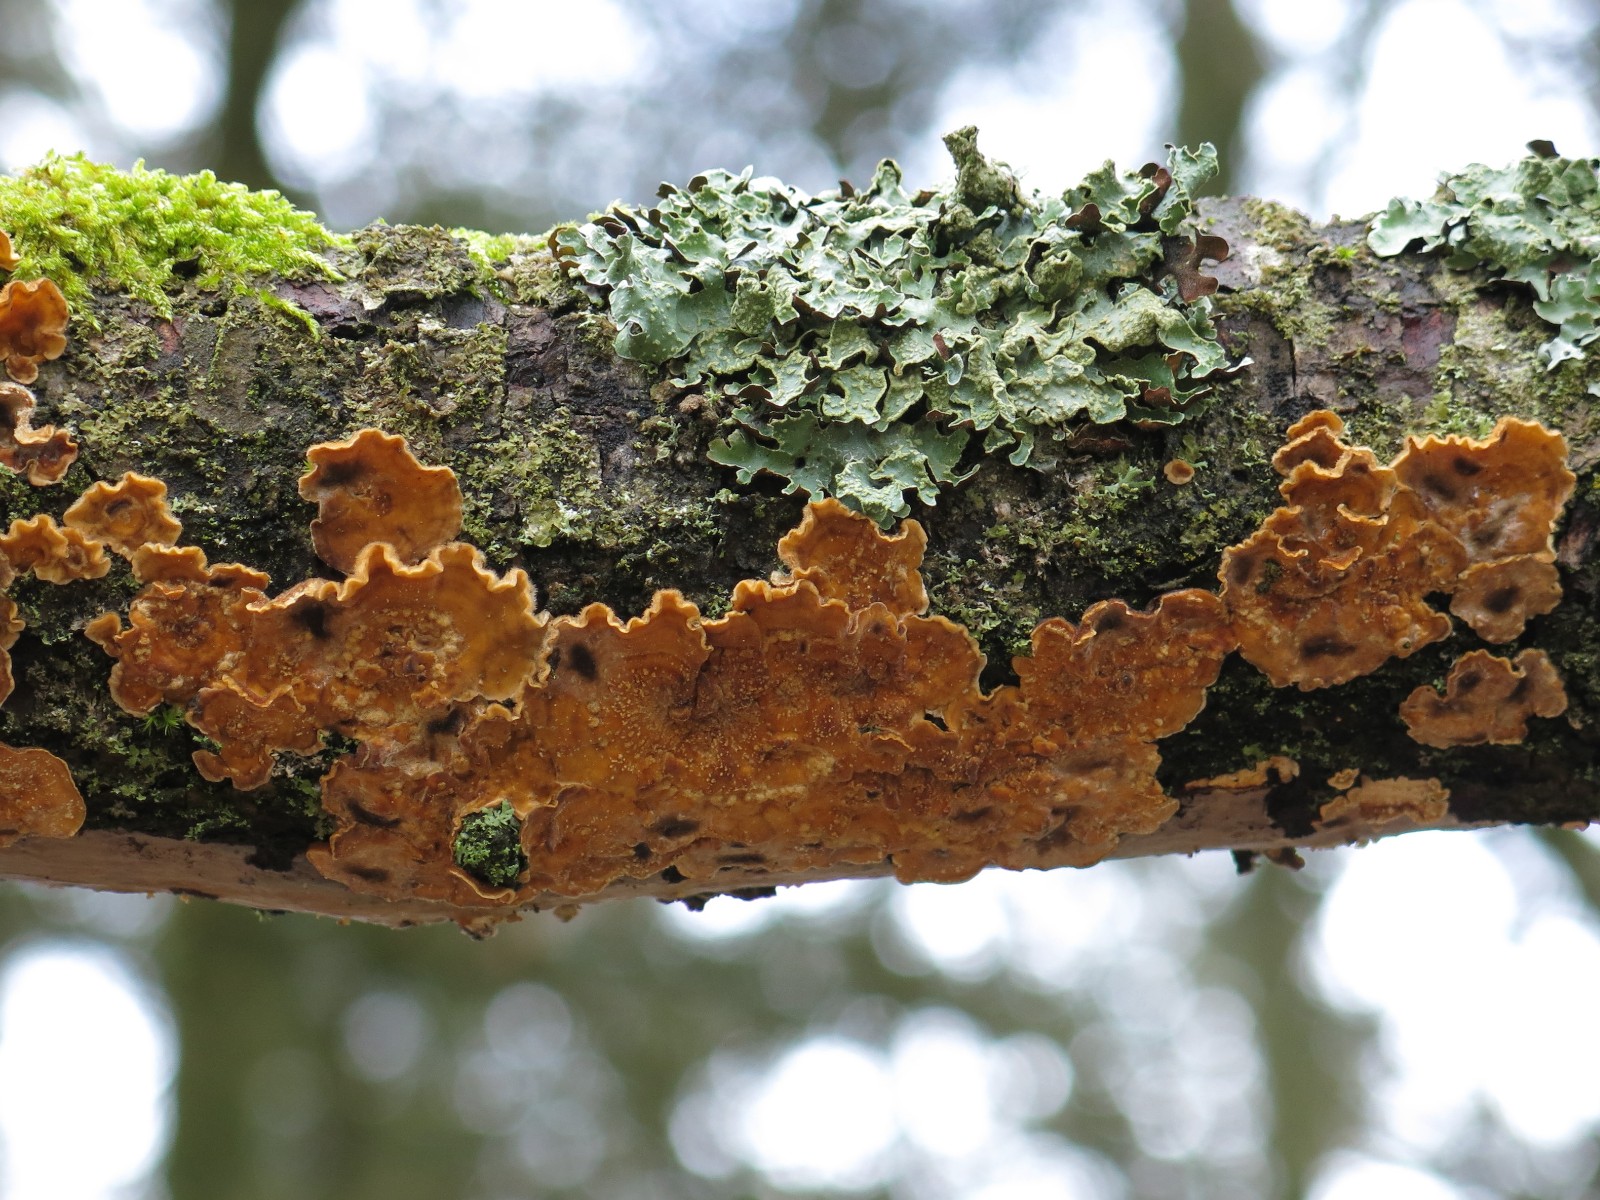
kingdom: Fungi
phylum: Basidiomycota
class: Agaricomycetes
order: Russulales
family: Stereaceae
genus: Stereum
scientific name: Stereum hirsutum
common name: håret lædersvamp
